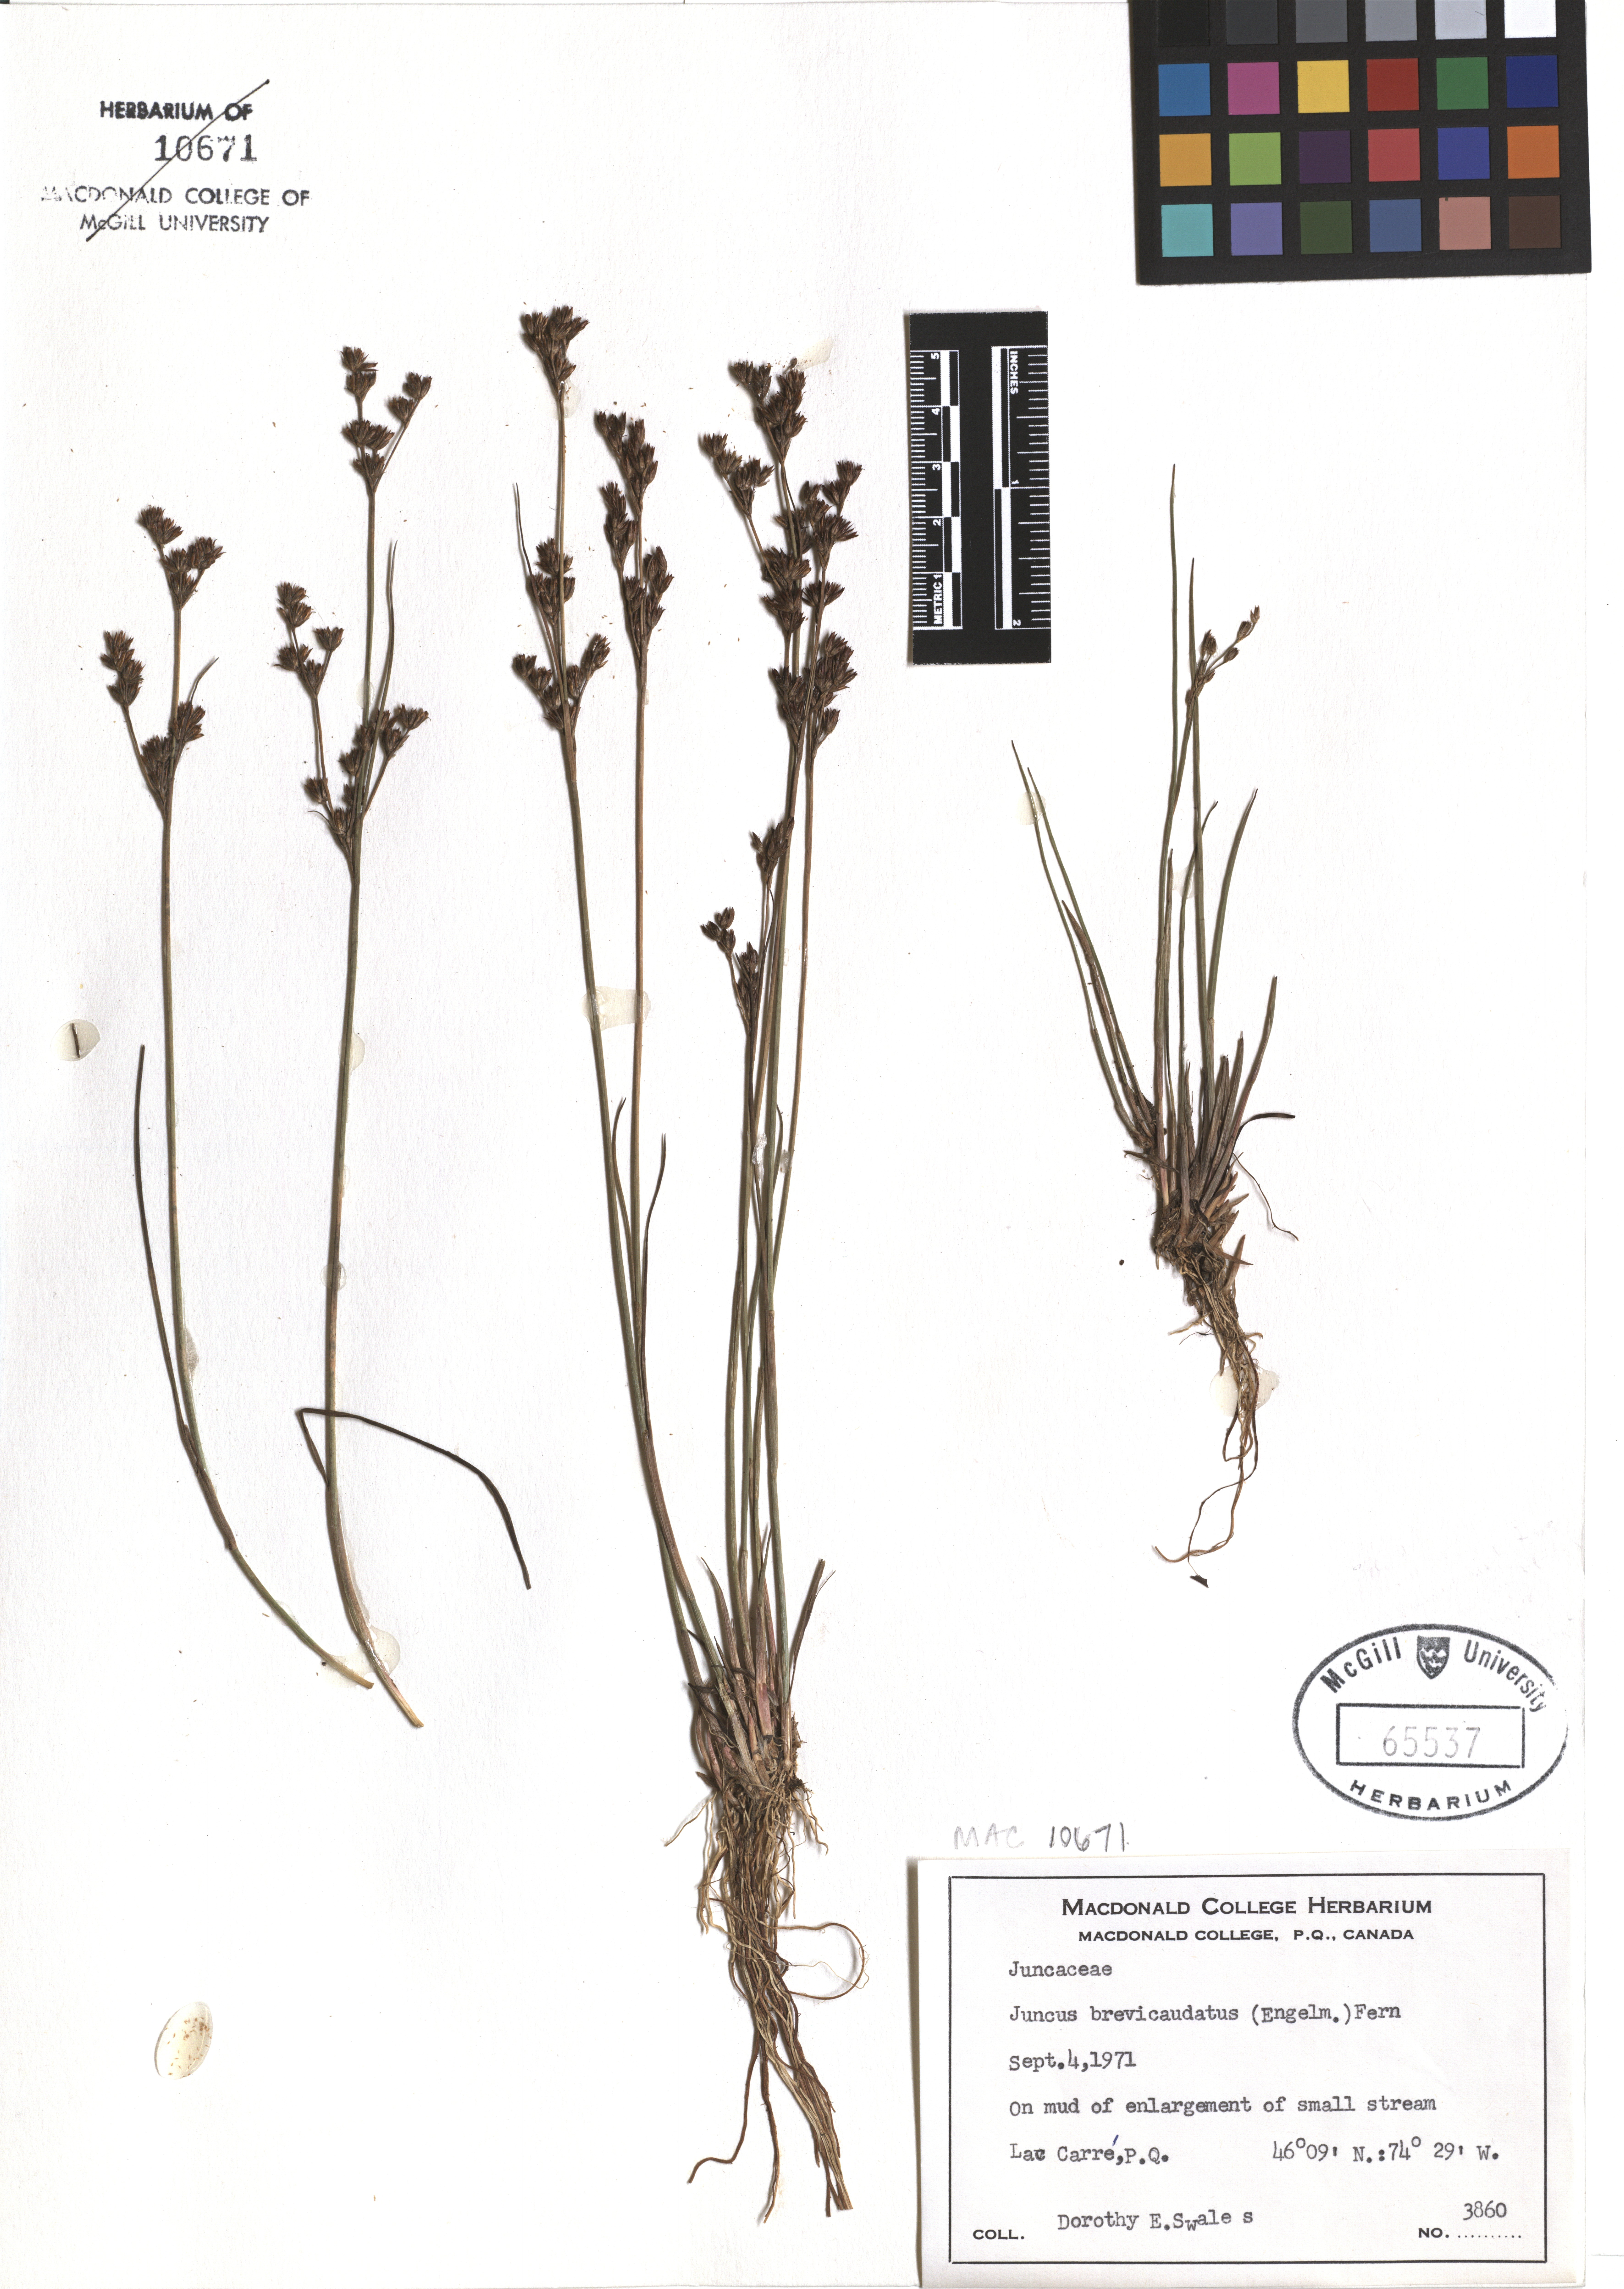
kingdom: Plantae
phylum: Tracheophyta
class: Liliopsida
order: Poales
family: Juncaceae
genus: Juncus
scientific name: Juncus brevicaudatus
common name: Narrow-panicle rush
